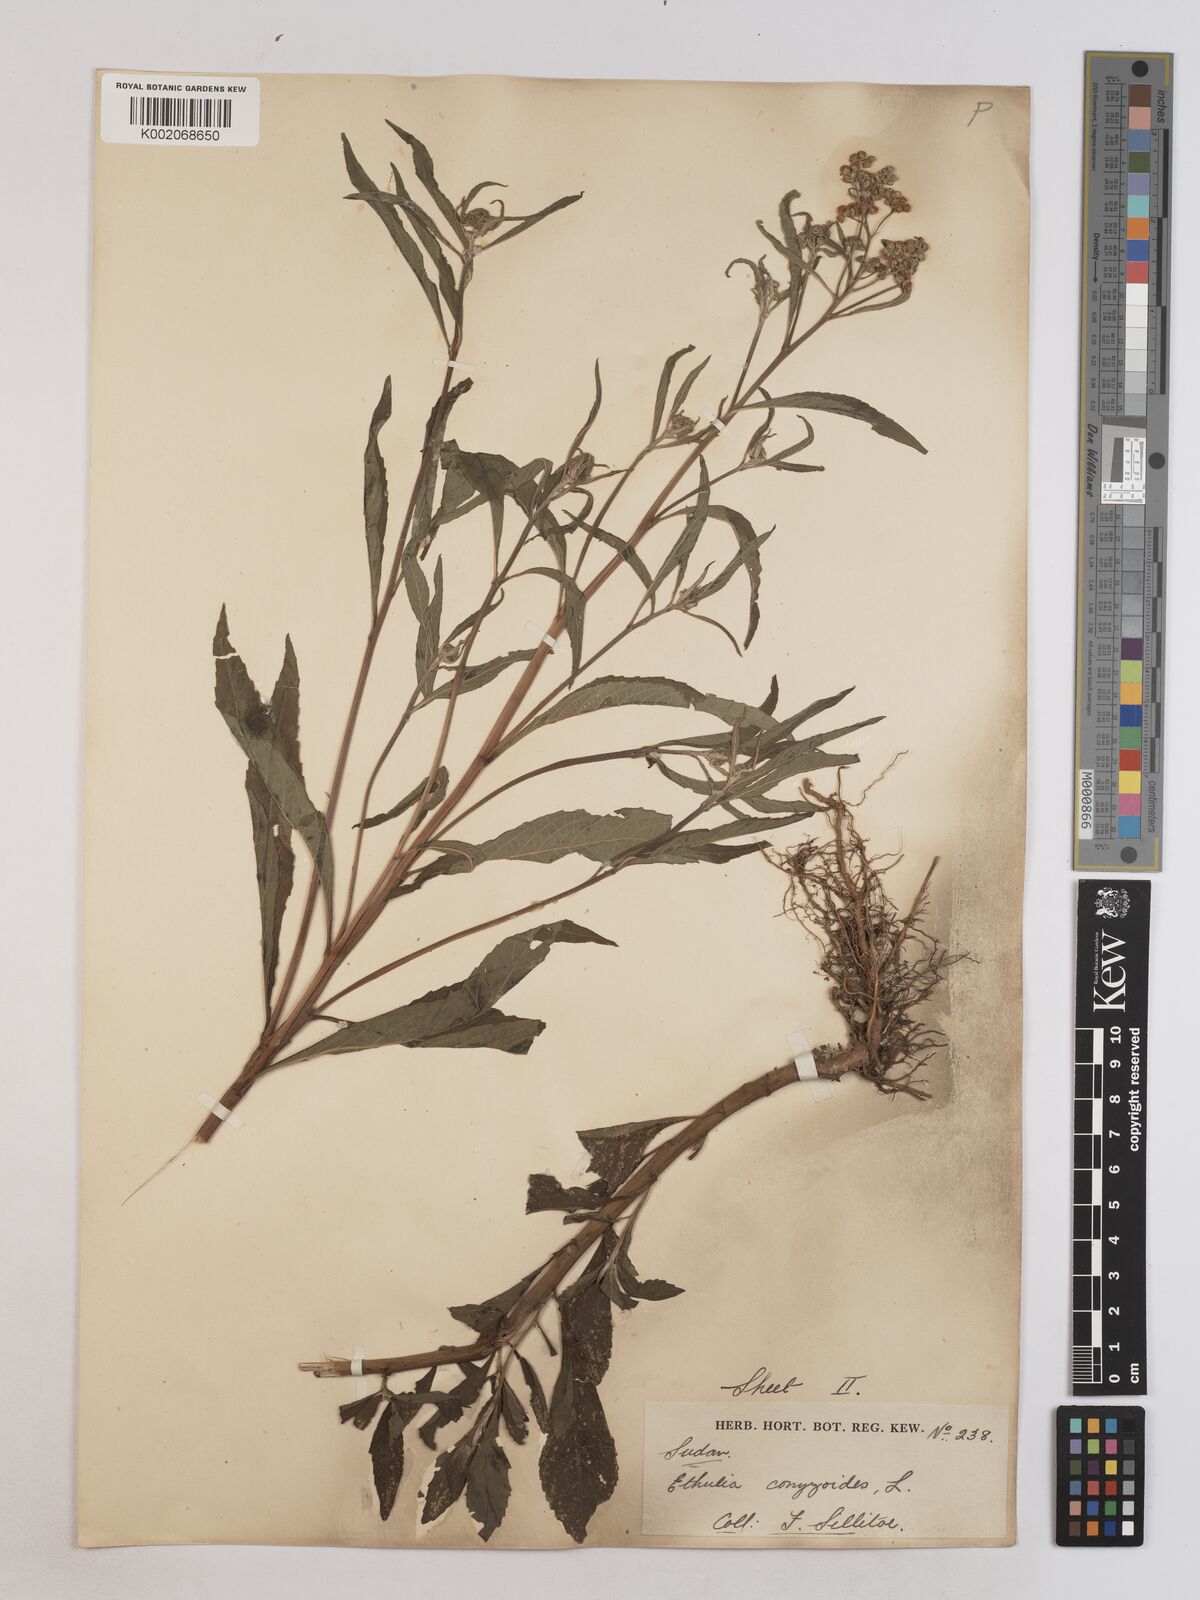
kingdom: Plantae
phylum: Tracheophyta
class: Magnoliopsida
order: Asterales
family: Asteraceae
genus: Ethulia
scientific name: Ethulia conyzoides
